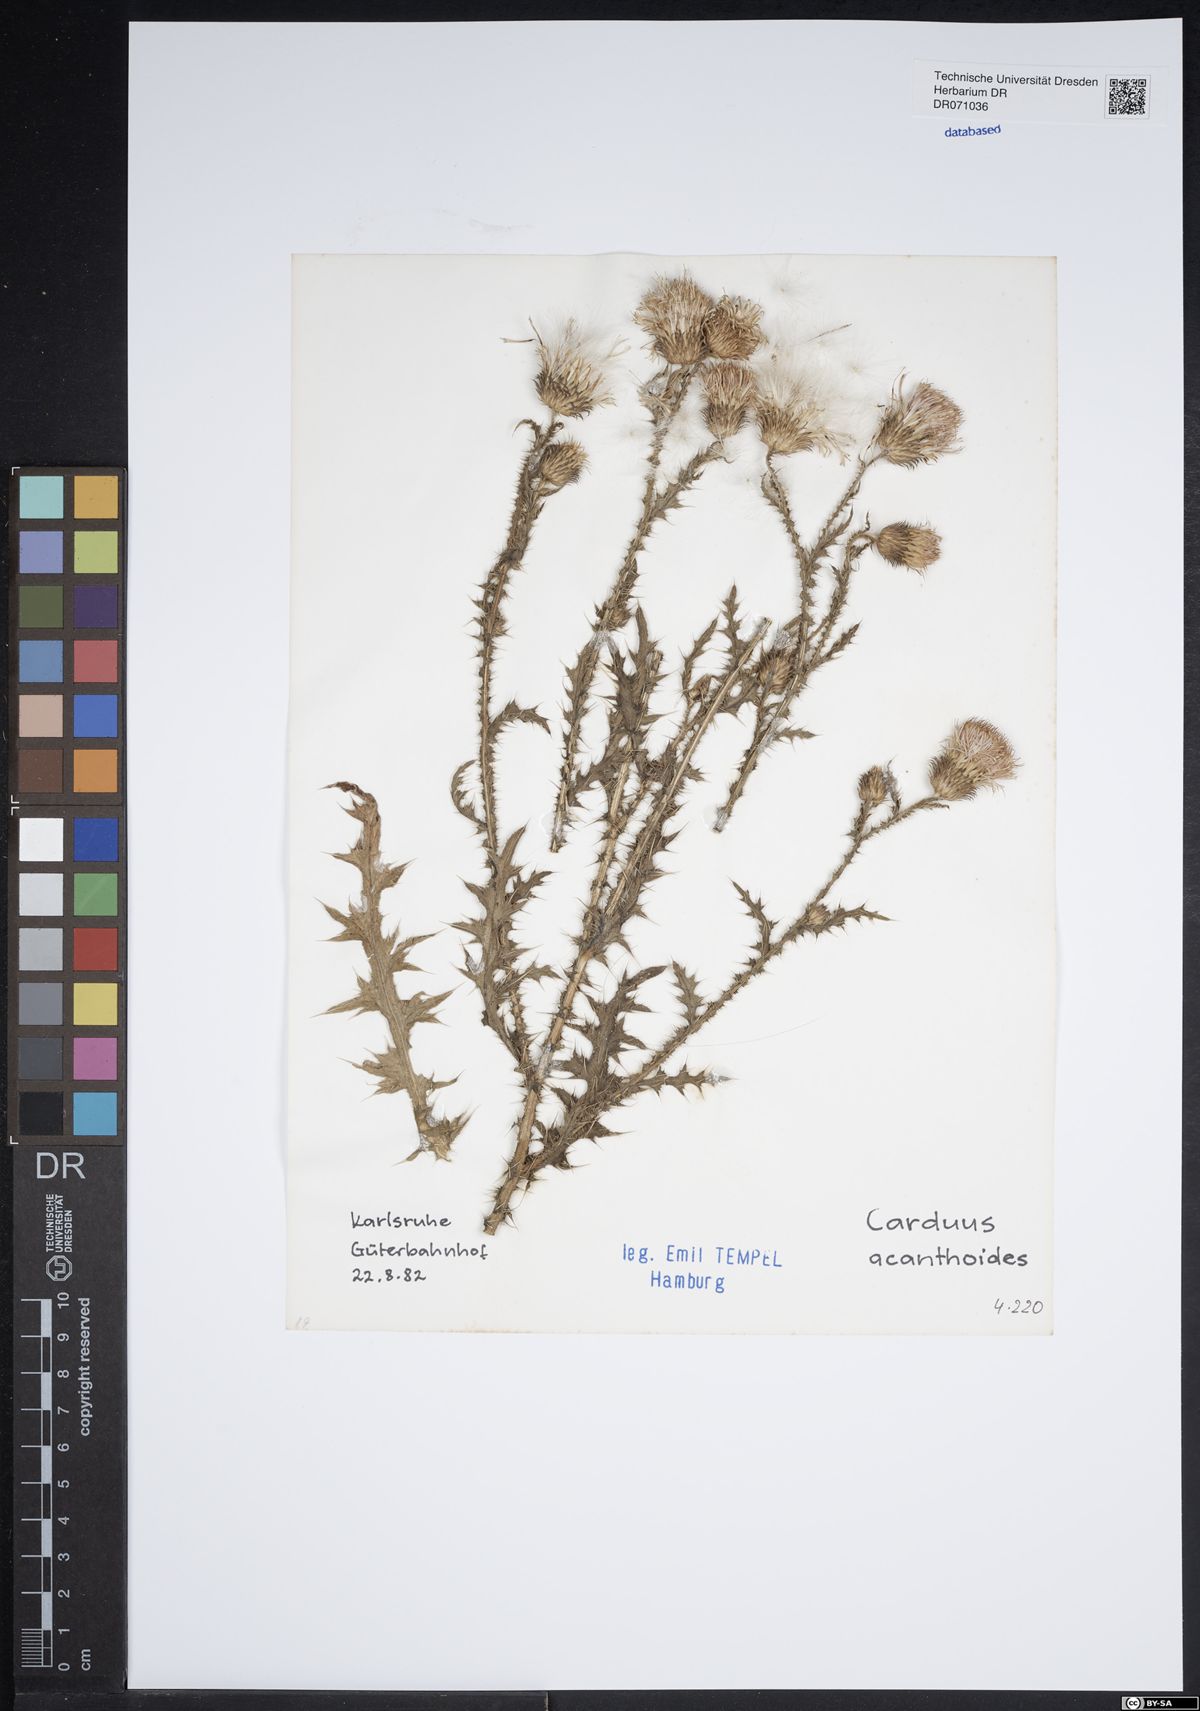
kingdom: Plantae
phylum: Tracheophyta
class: Magnoliopsida
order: Asterales
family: Asteraceae
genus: Carduus
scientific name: Carduus acanthoides
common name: Plumeless thistle
